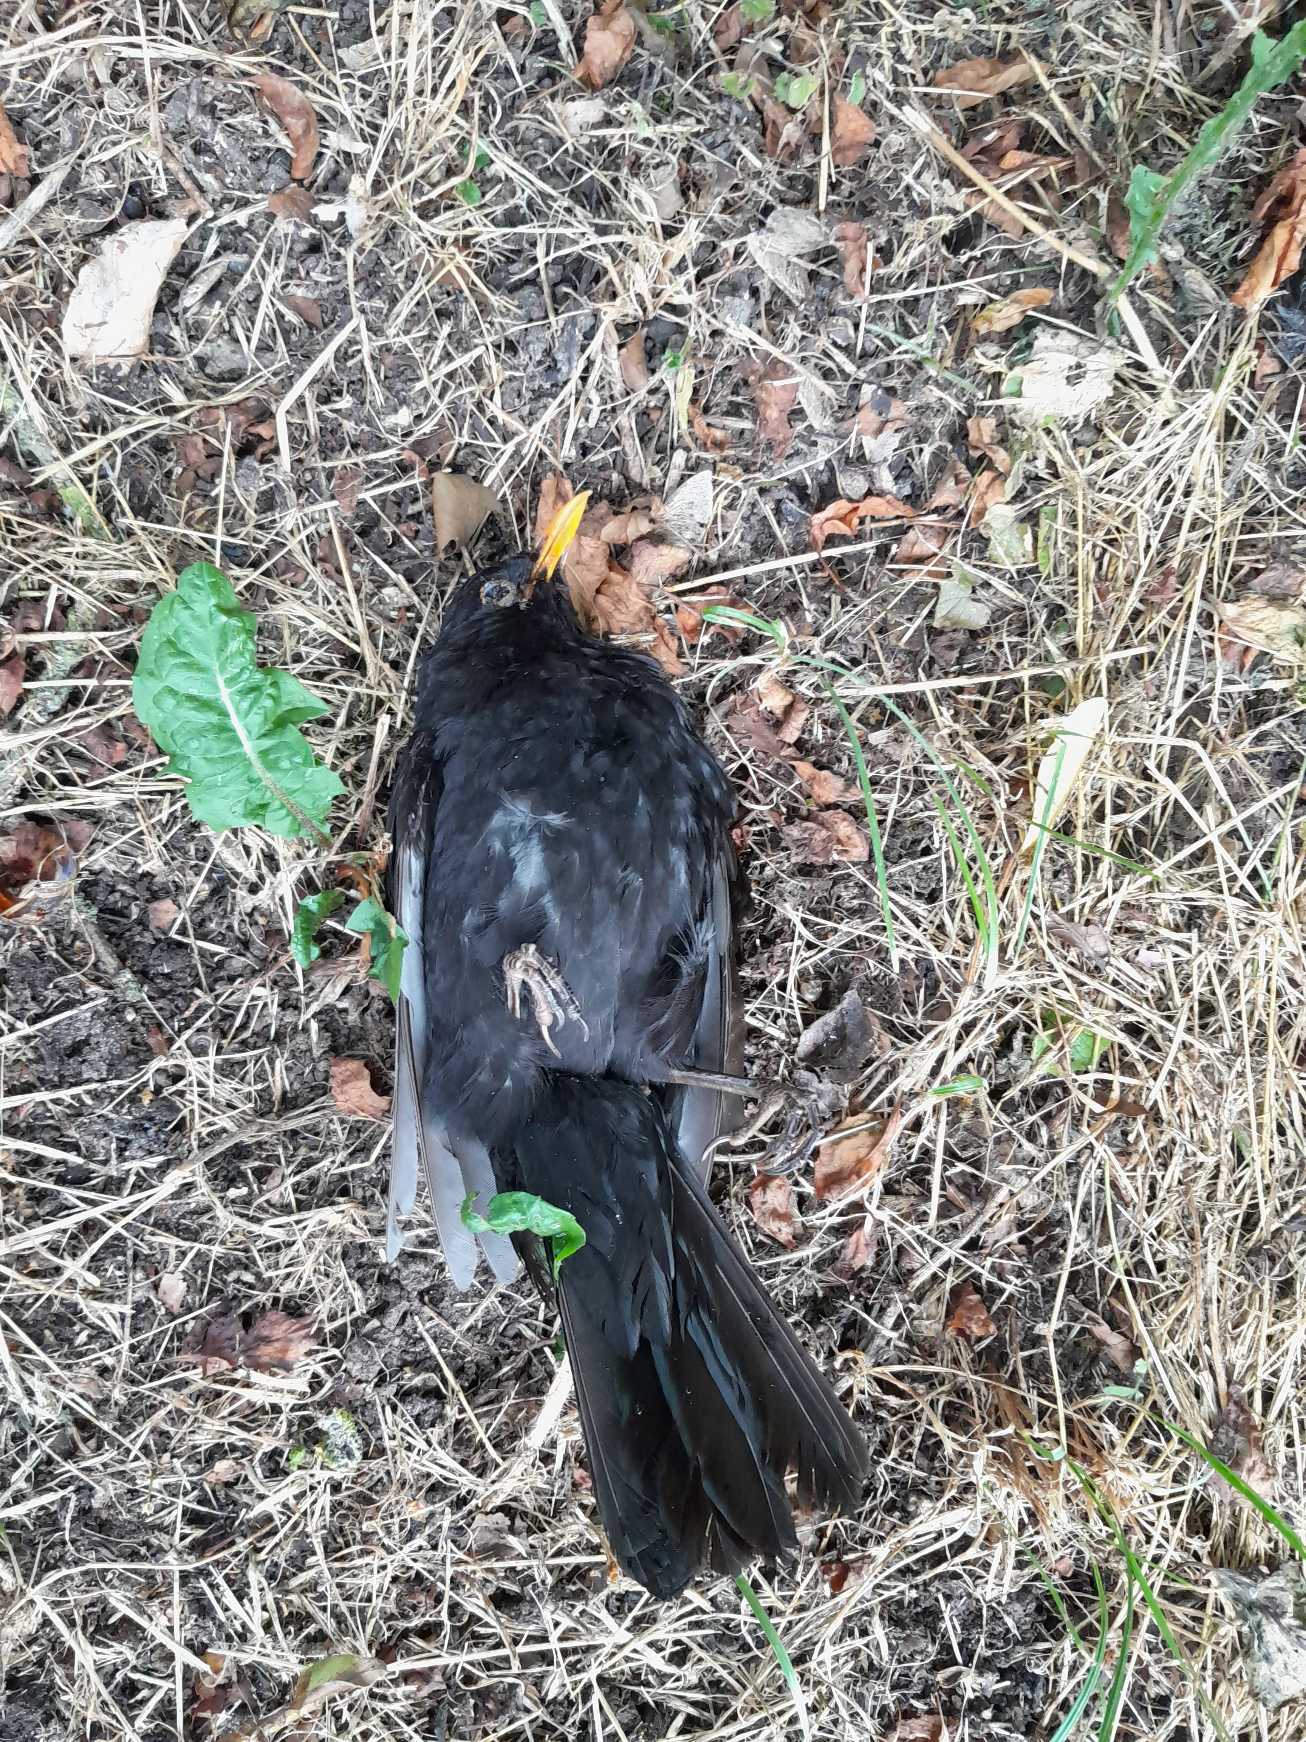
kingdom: Animalia
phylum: Chordata
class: Aves
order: Passeriformes
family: Turdidae
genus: Turdus
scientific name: Turdus merula
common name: Solsort
